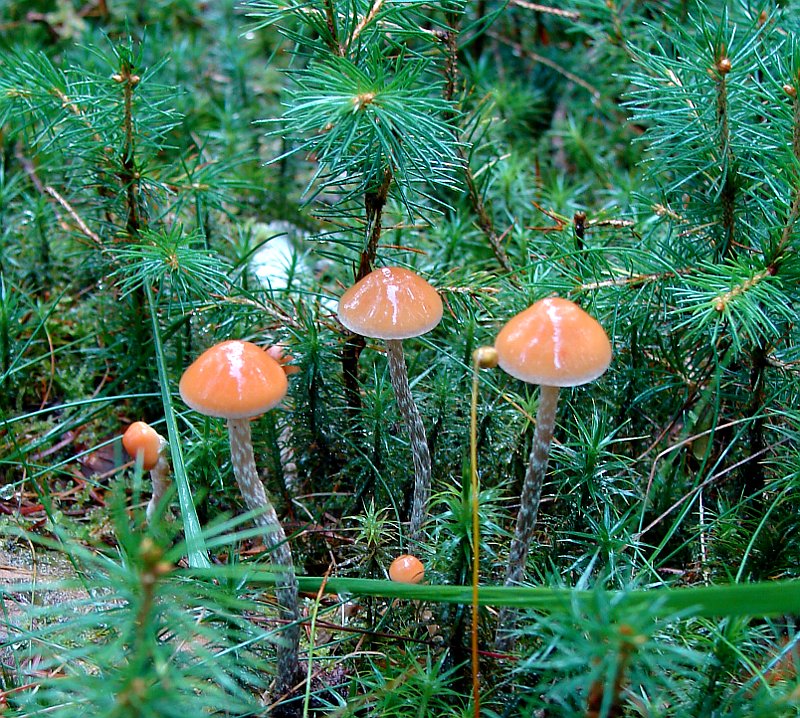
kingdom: Fungi
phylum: Basidiomycota
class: Agaricomycetes
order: Agaricales
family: Strophariaceae
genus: Hypholoma
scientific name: Hypholoma marginatum
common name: enlig svovlhat
